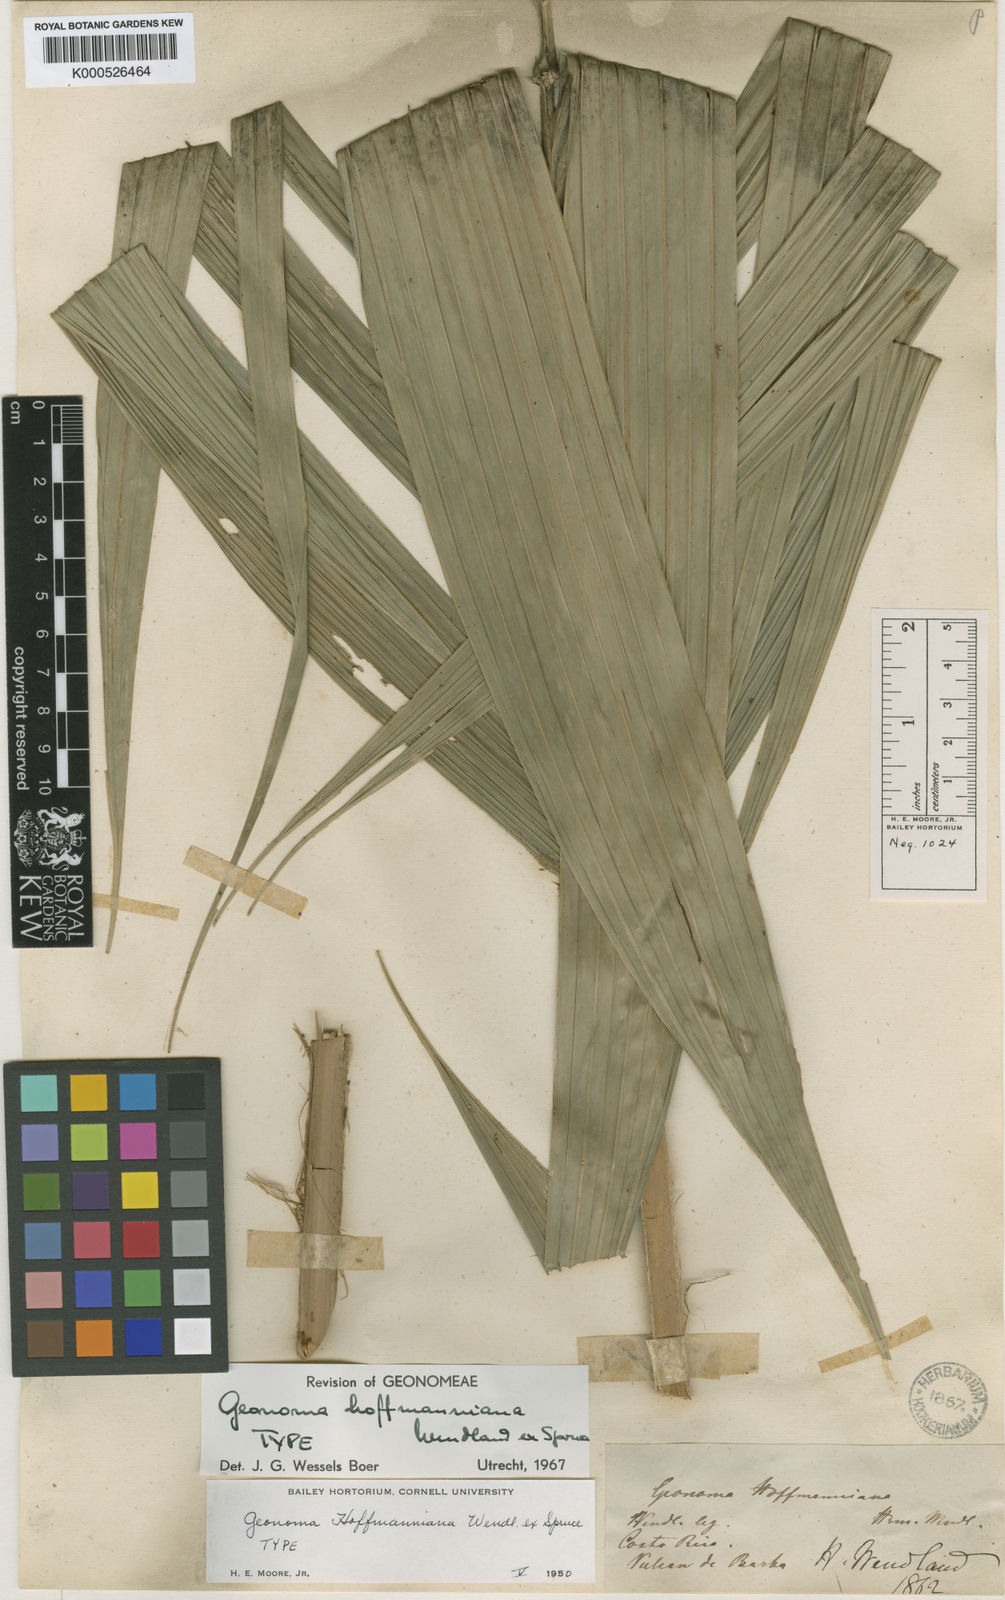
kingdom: Plantae
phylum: Tracheophyta
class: Liliopsida
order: Arecales
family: Arecaceae
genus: Geonoma
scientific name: Geonoma orbignyana
